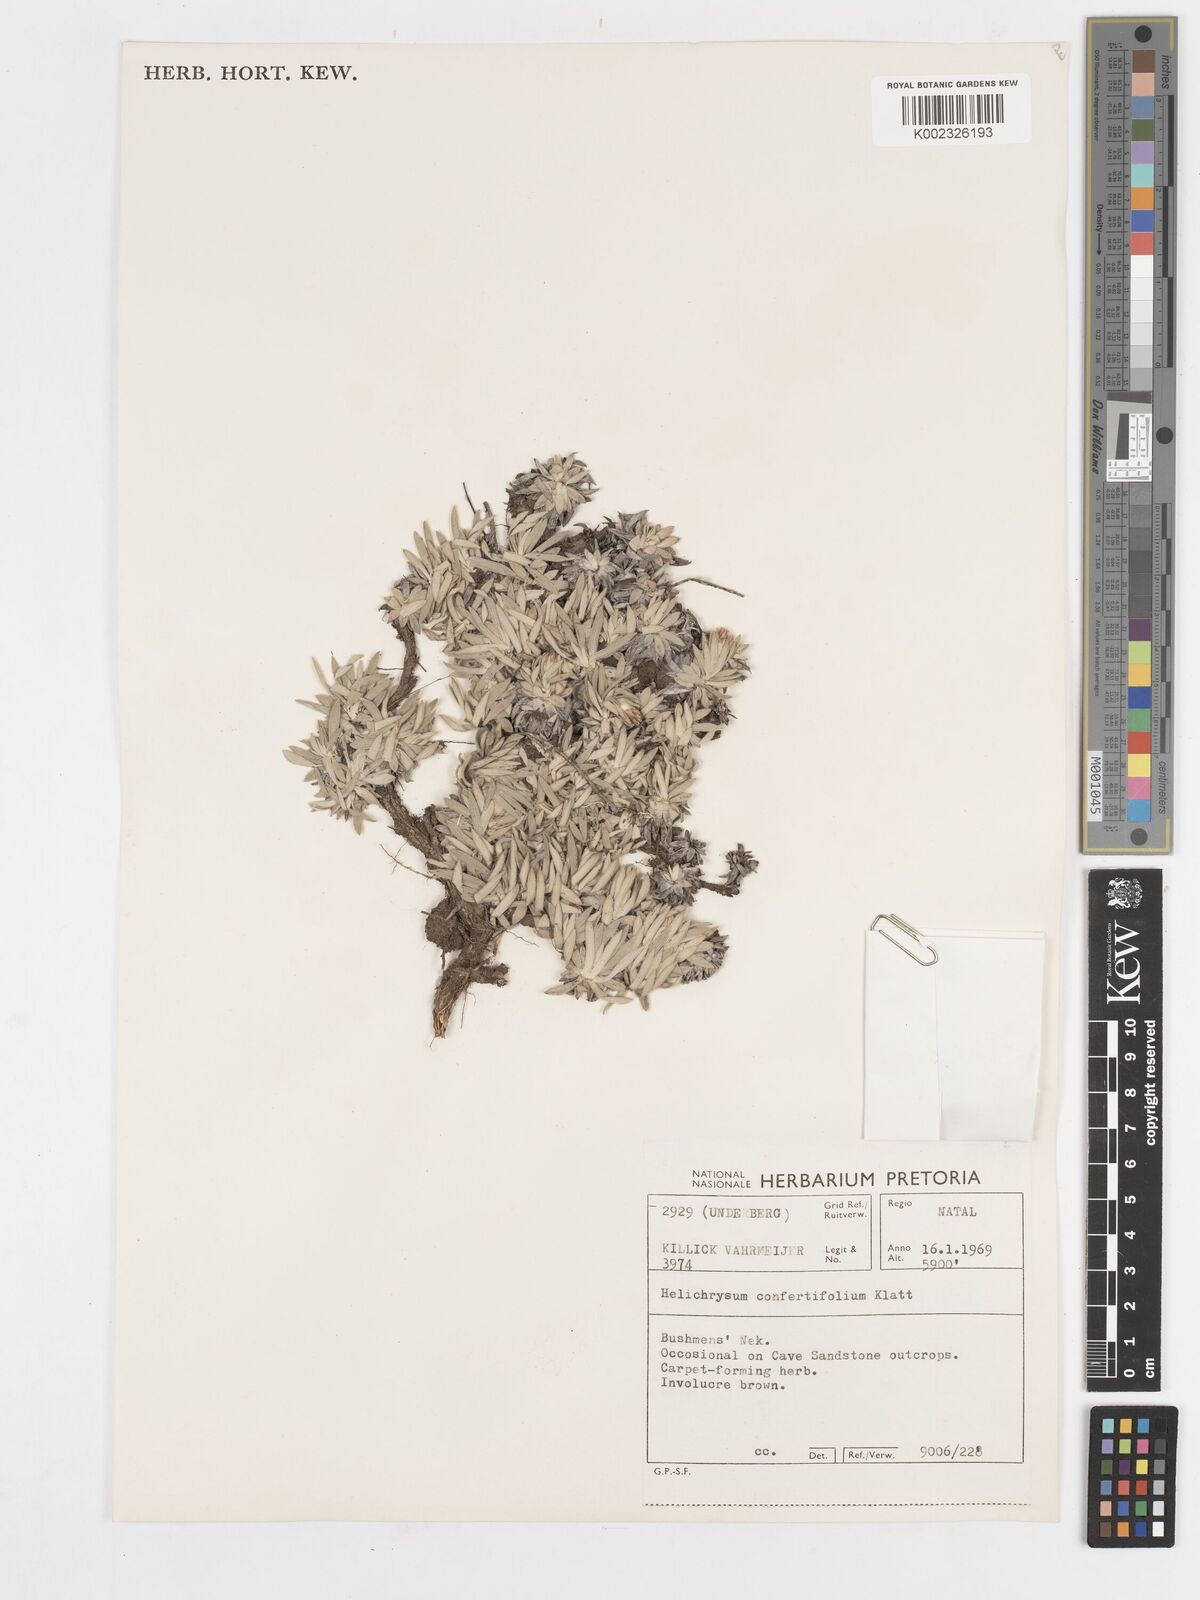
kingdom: Plantae
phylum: Tracheophyta
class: Magnoliopsida
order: Asterales
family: Asteraceae
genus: Helichrysum
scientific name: Helichrysum confertifolium
